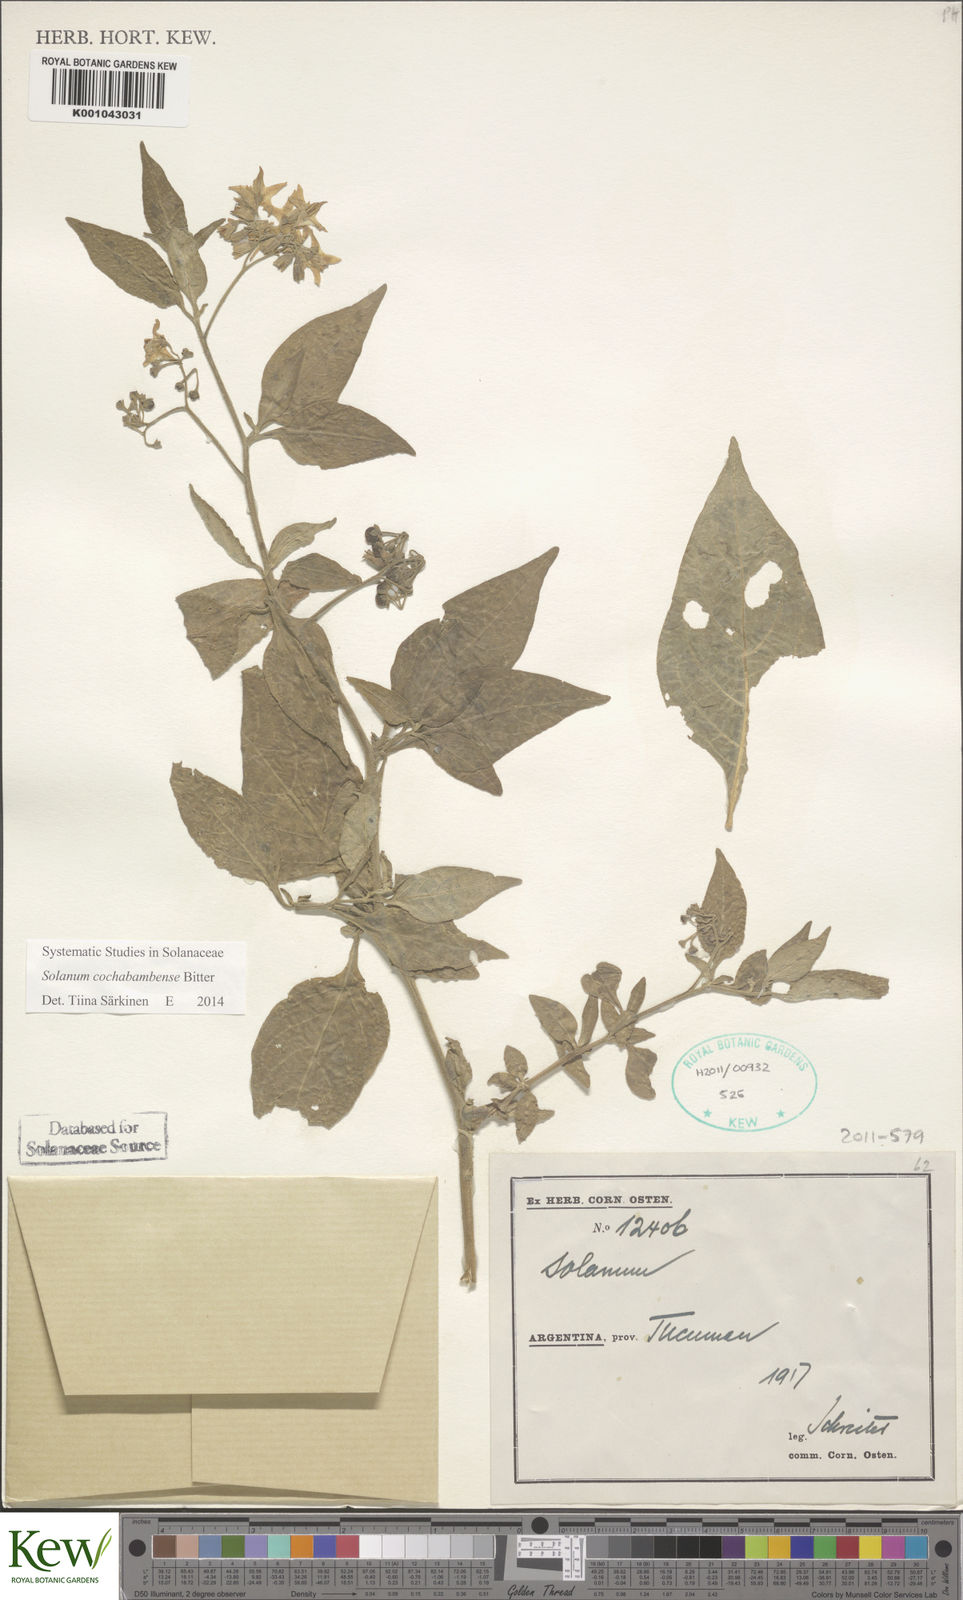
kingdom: Plantae
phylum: Tracheophyta
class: Magnoliopsida
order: Solanales
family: Solanaceae
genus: Solanum
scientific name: Solanum cochabambense
